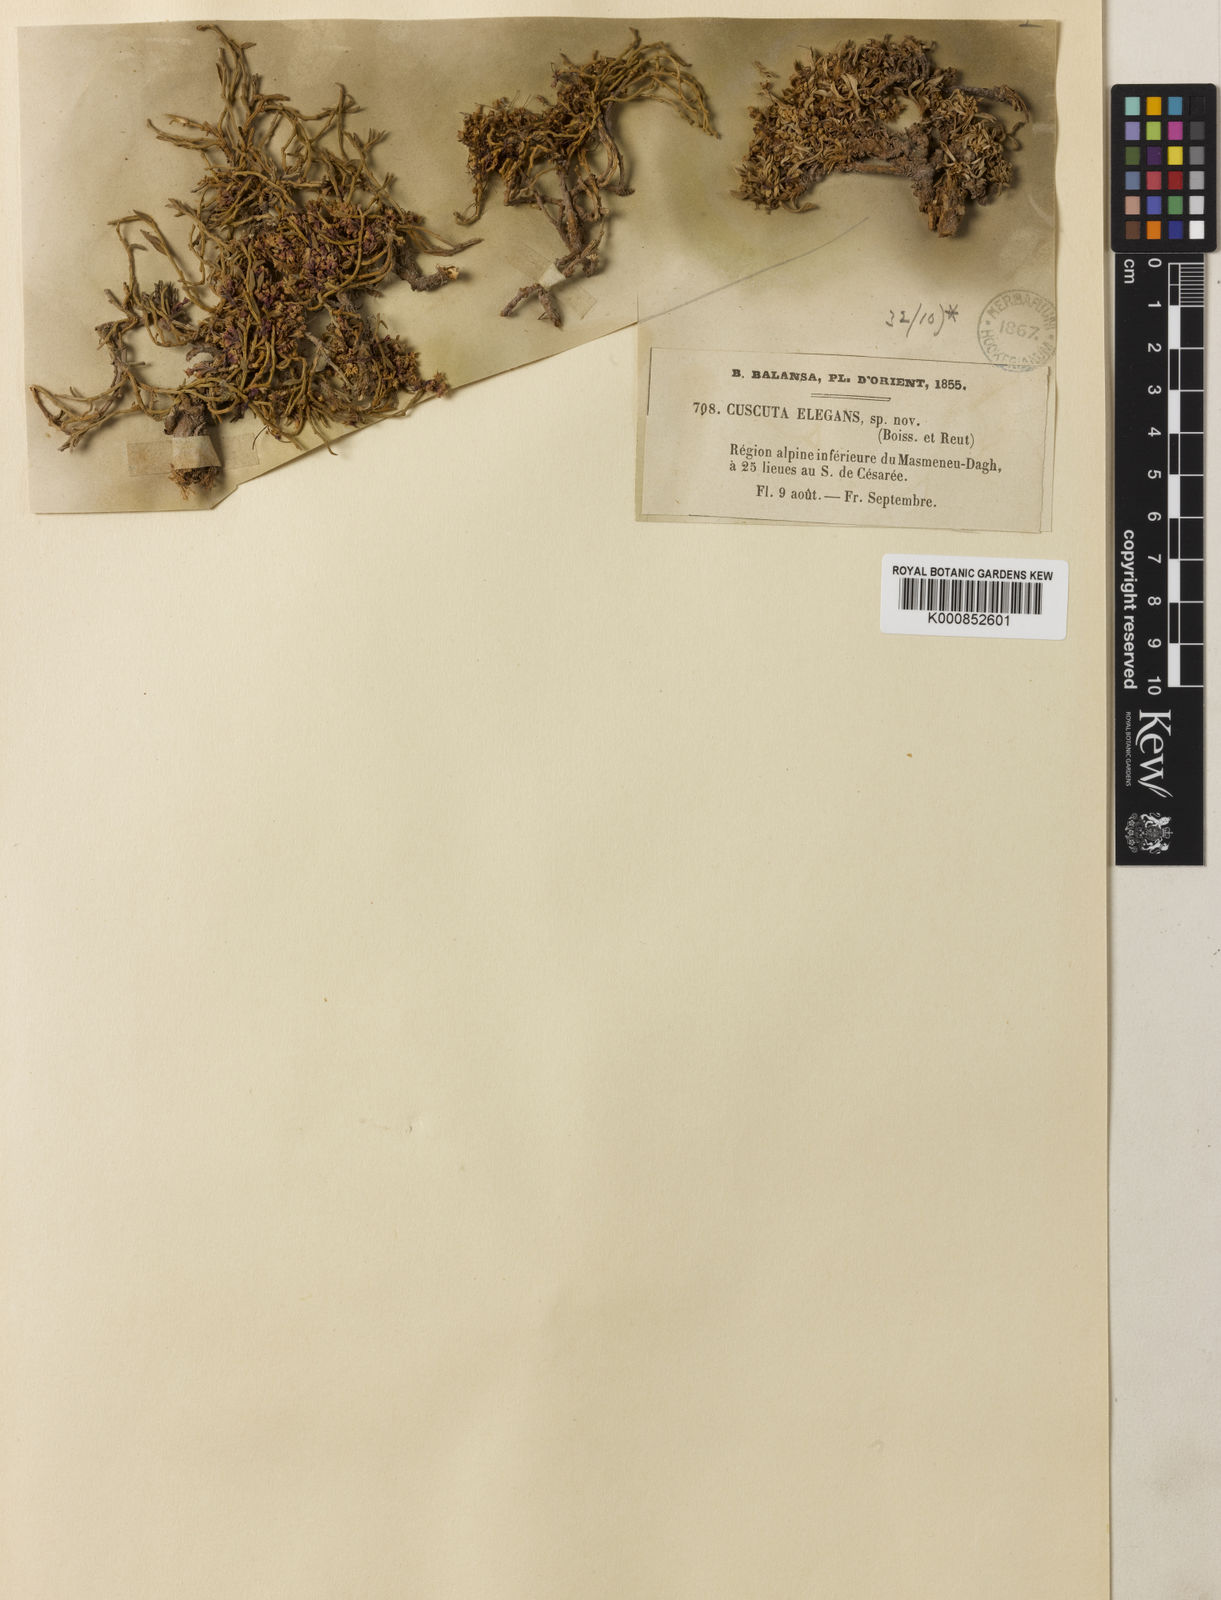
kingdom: Plantae
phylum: Tracheophyta
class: Magnoliopsida
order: Solanales
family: Convolvulaceae
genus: Cuscuta
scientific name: Cuscuta babylonica
